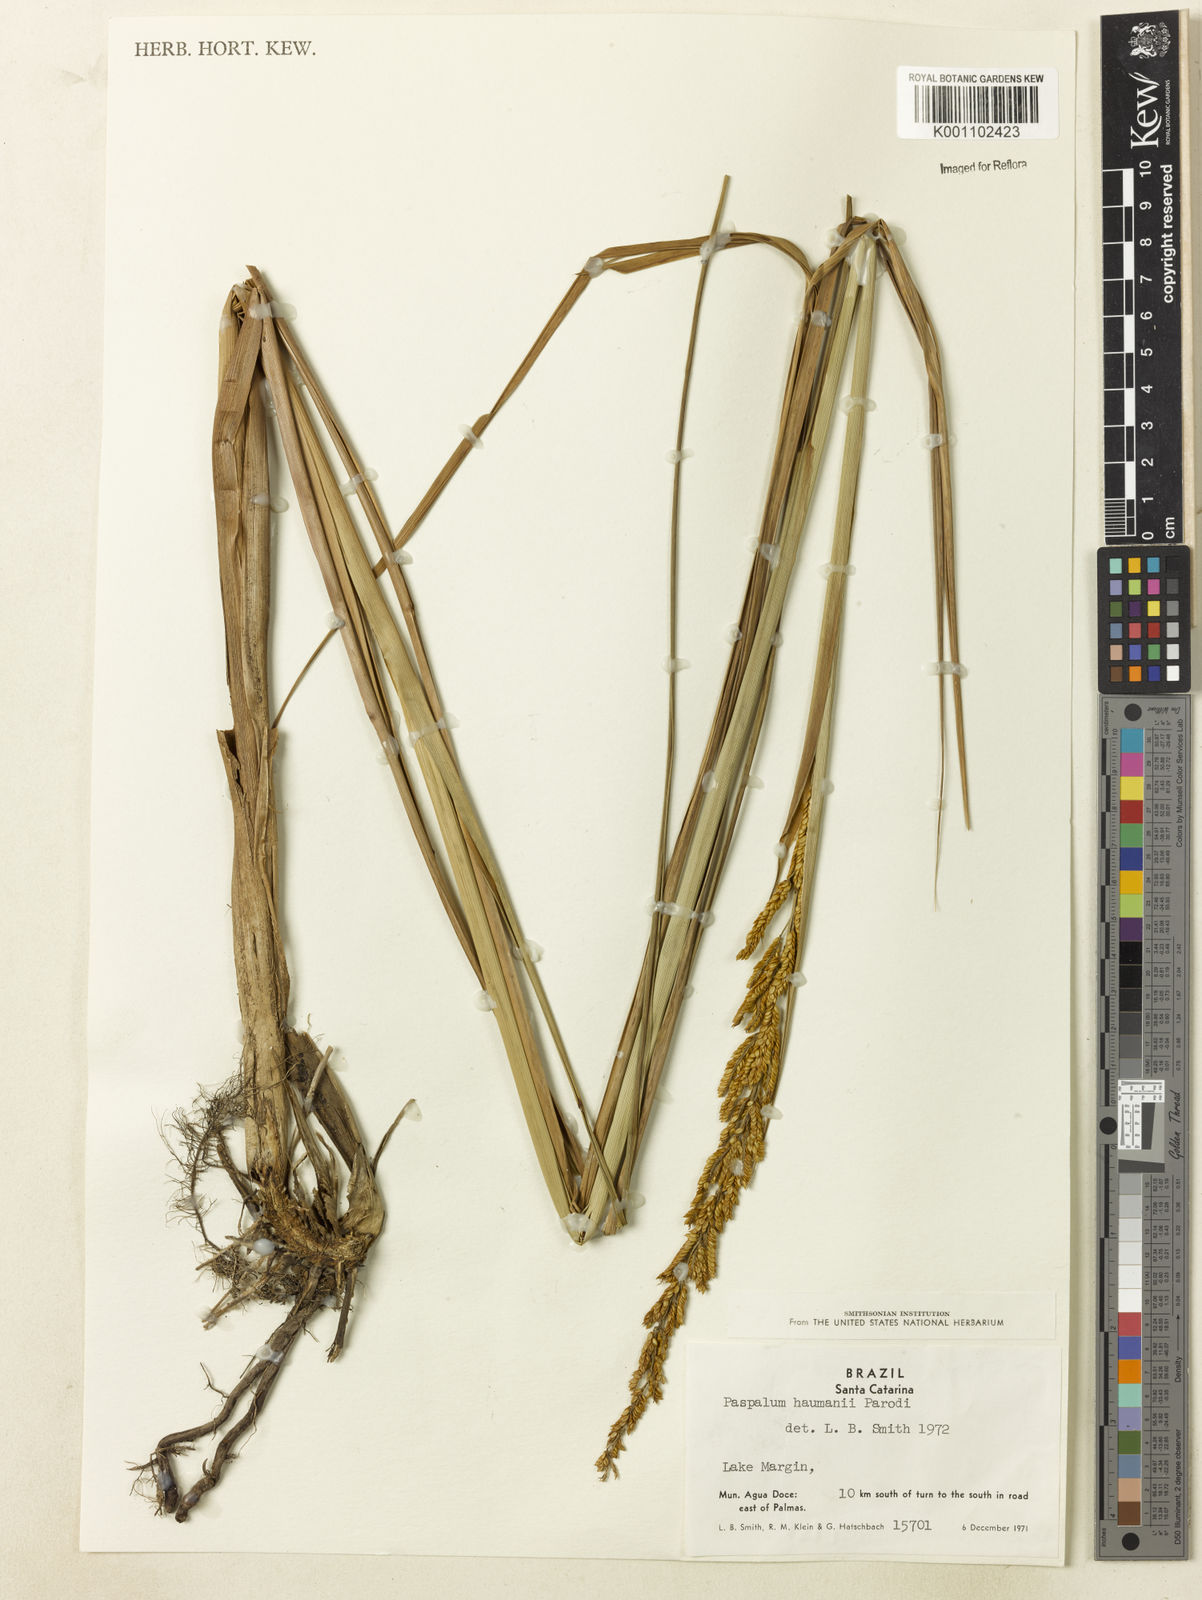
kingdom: Plantae
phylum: Tracheophyta
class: Liliopsida
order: Poales
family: Poaceae
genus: Paspalum
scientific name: Paspalum exaltatum
